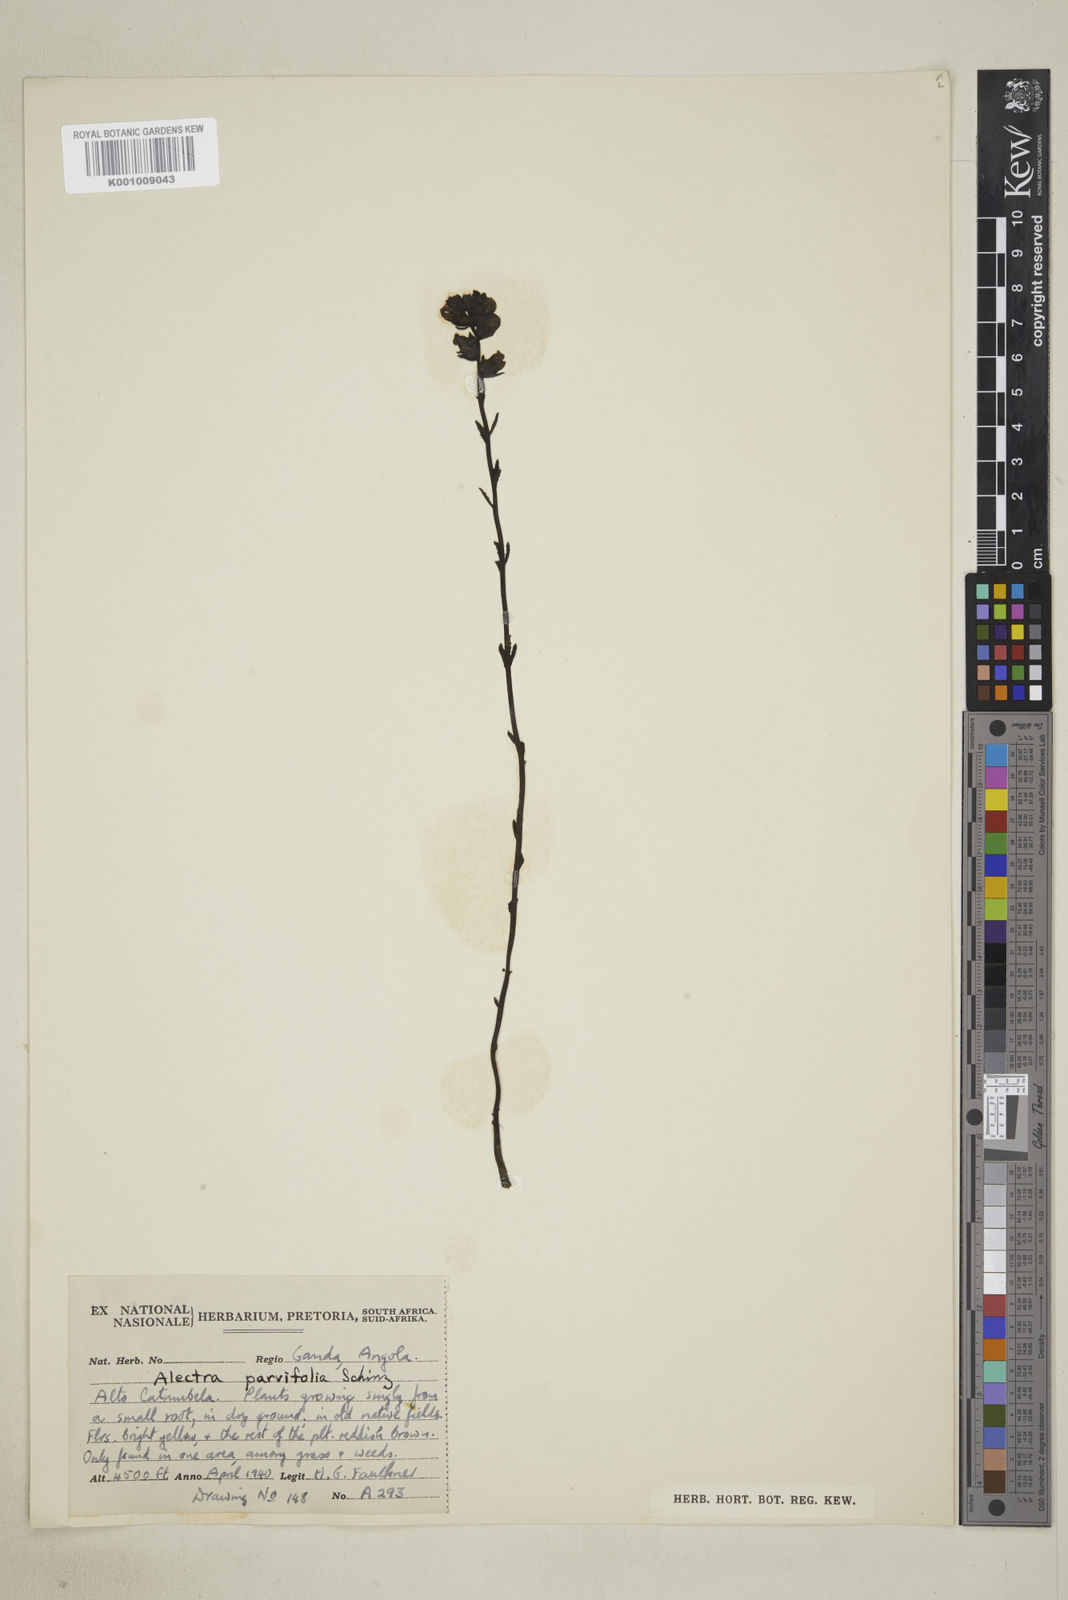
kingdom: Plantae
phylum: Tracheophyta
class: Magnoliopsida
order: Lamiales
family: Orobanchaceae
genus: Alectra
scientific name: Alectra orobanchoides
